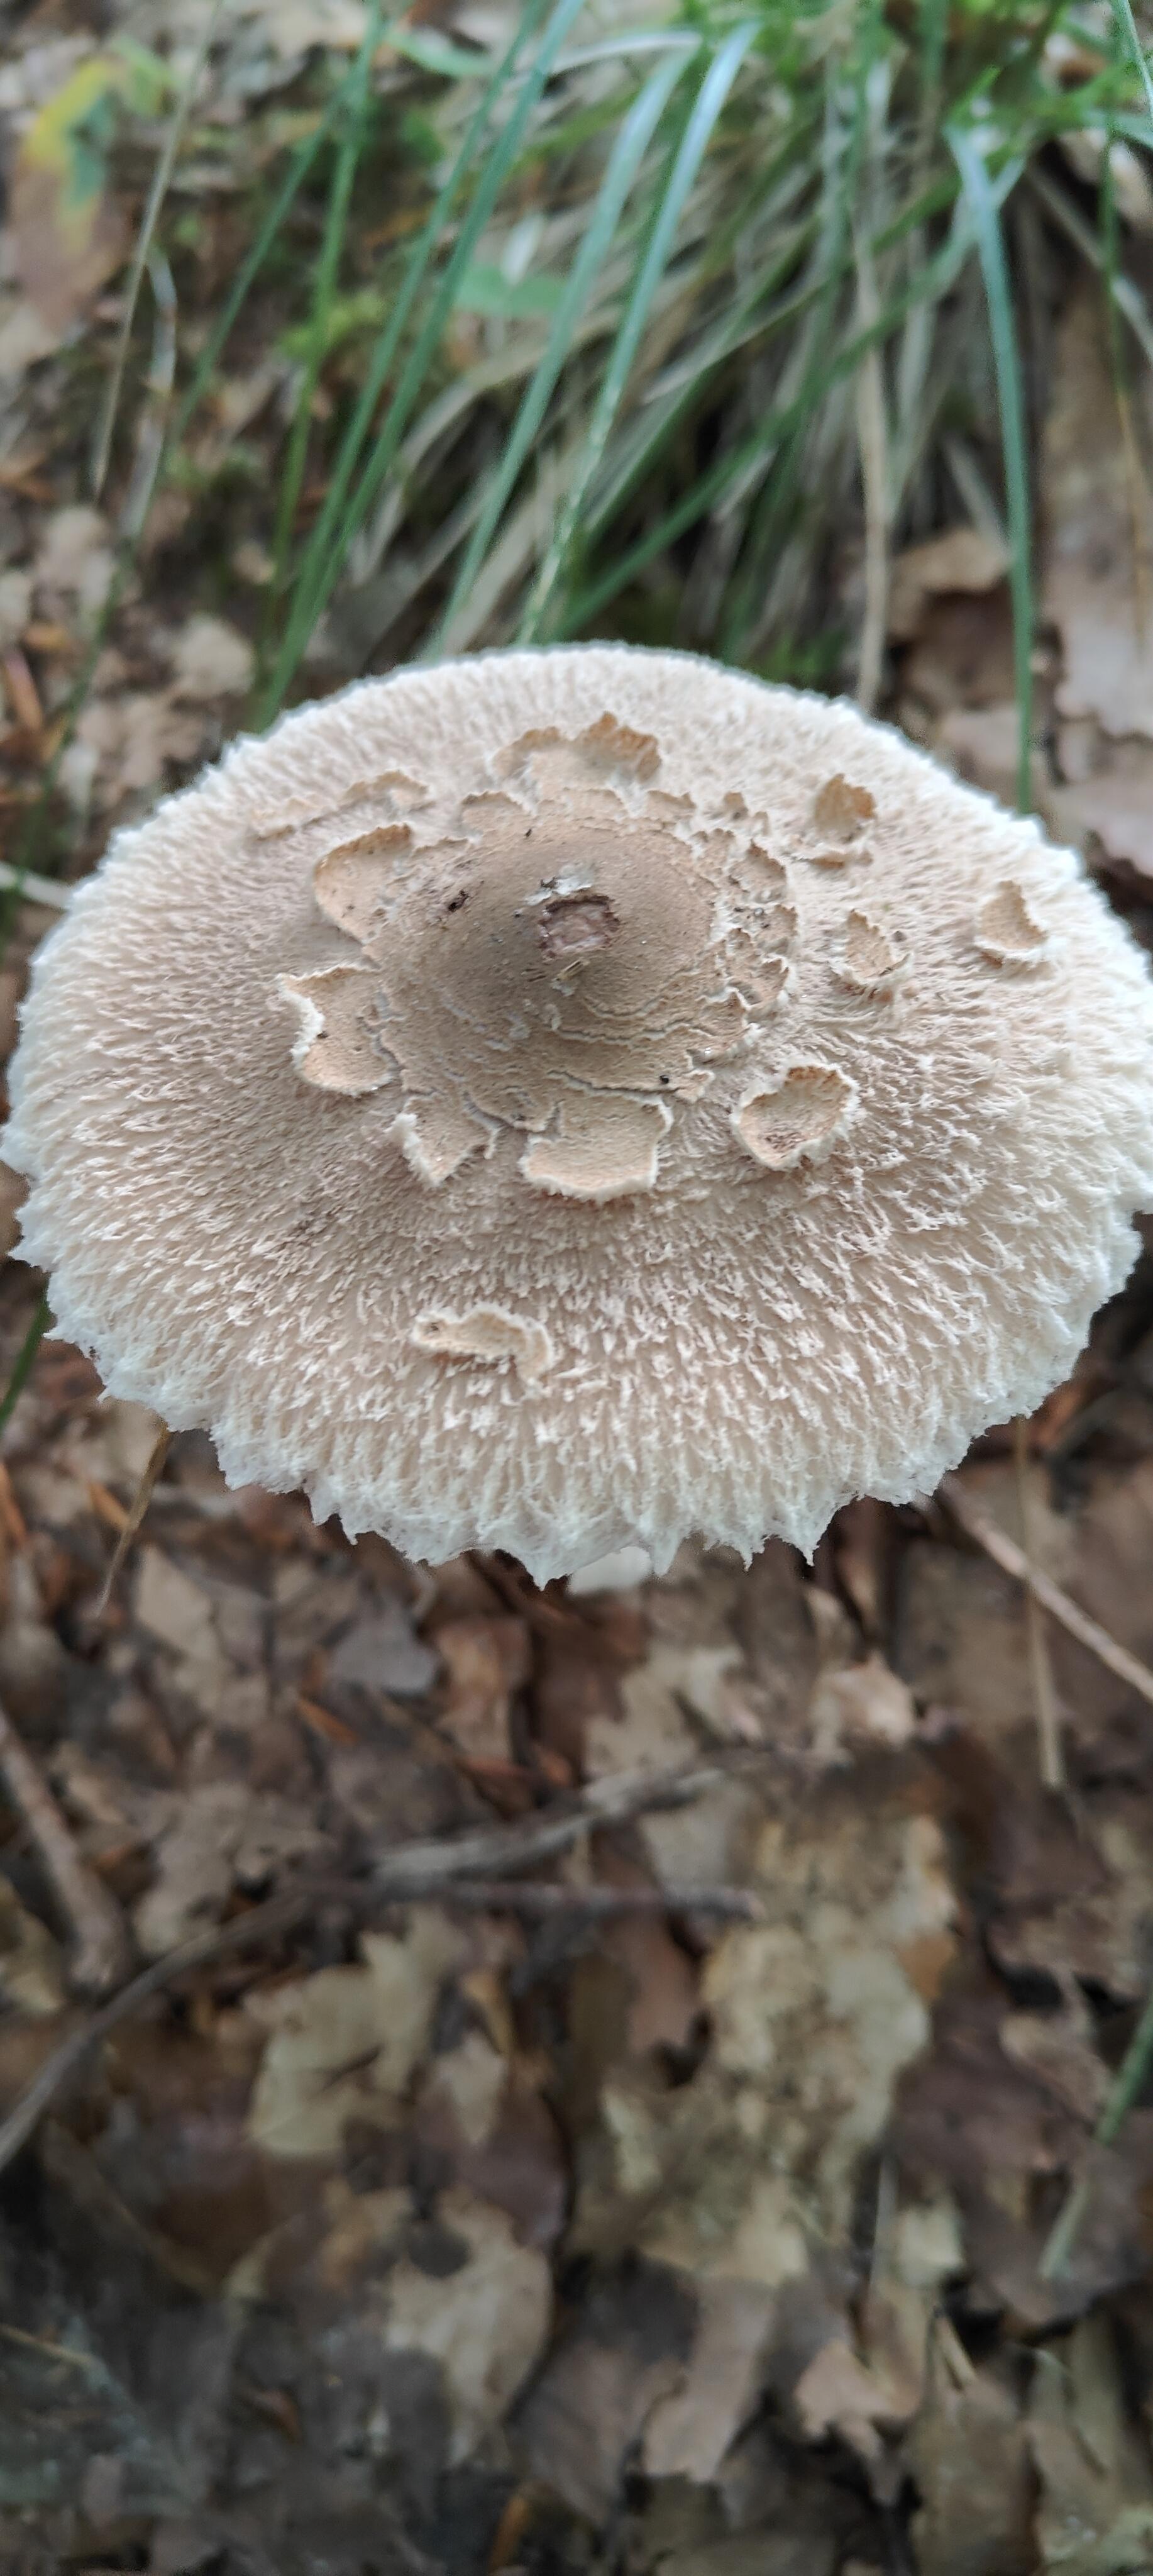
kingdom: Fungi
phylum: Basidiomycota
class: Agaricomycetes
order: Agaricales
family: Agaricaceae
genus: Macrolepiota
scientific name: Macrolepiota mastoidea
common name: puklet kæmpeparasolhat
